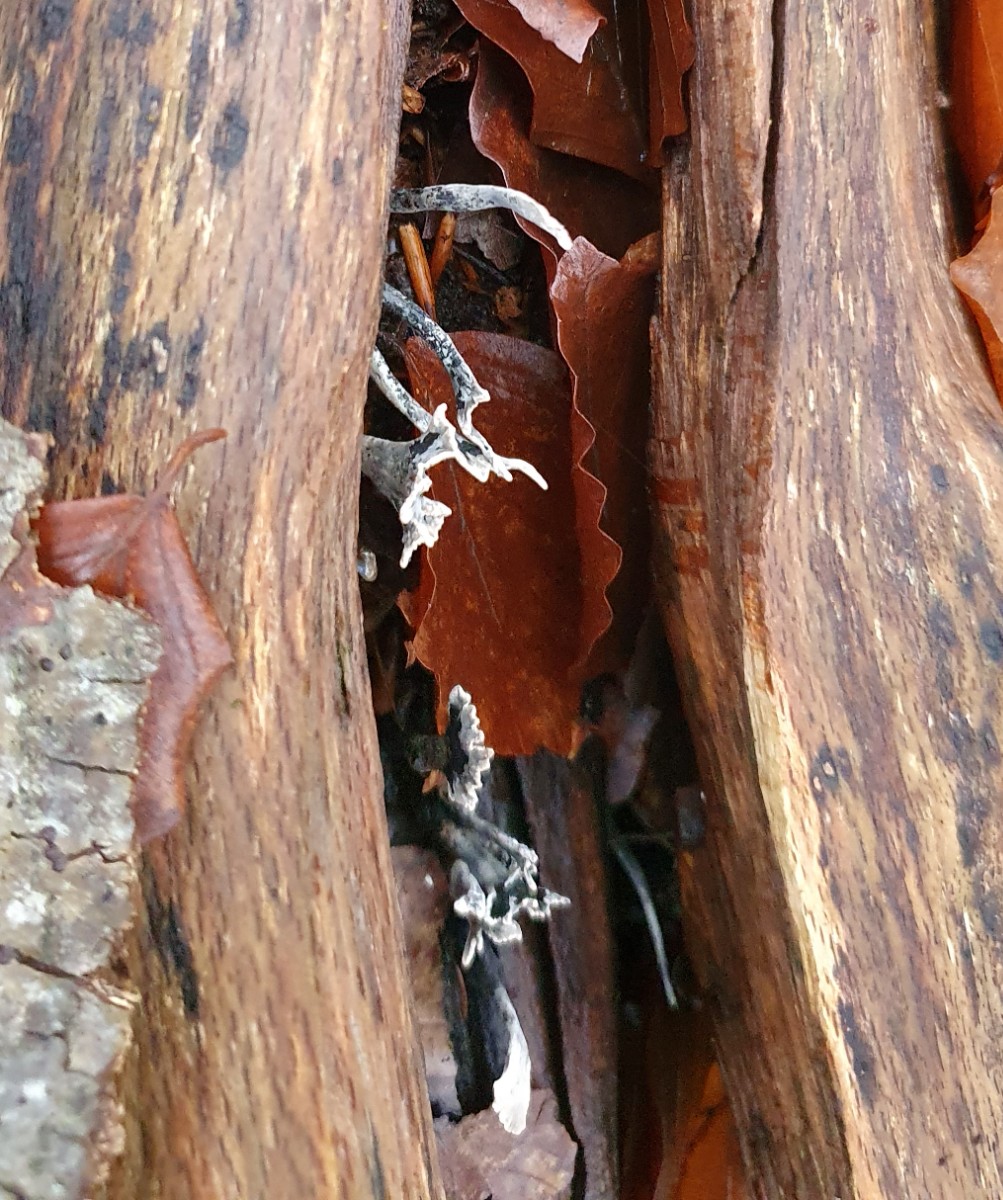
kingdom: Fungi
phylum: Ascomycota
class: Sordariomycetes
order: Xylariales
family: Xylariaceae
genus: Xylaria
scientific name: Xylaria hypoxylon
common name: grenet stødsvamp
